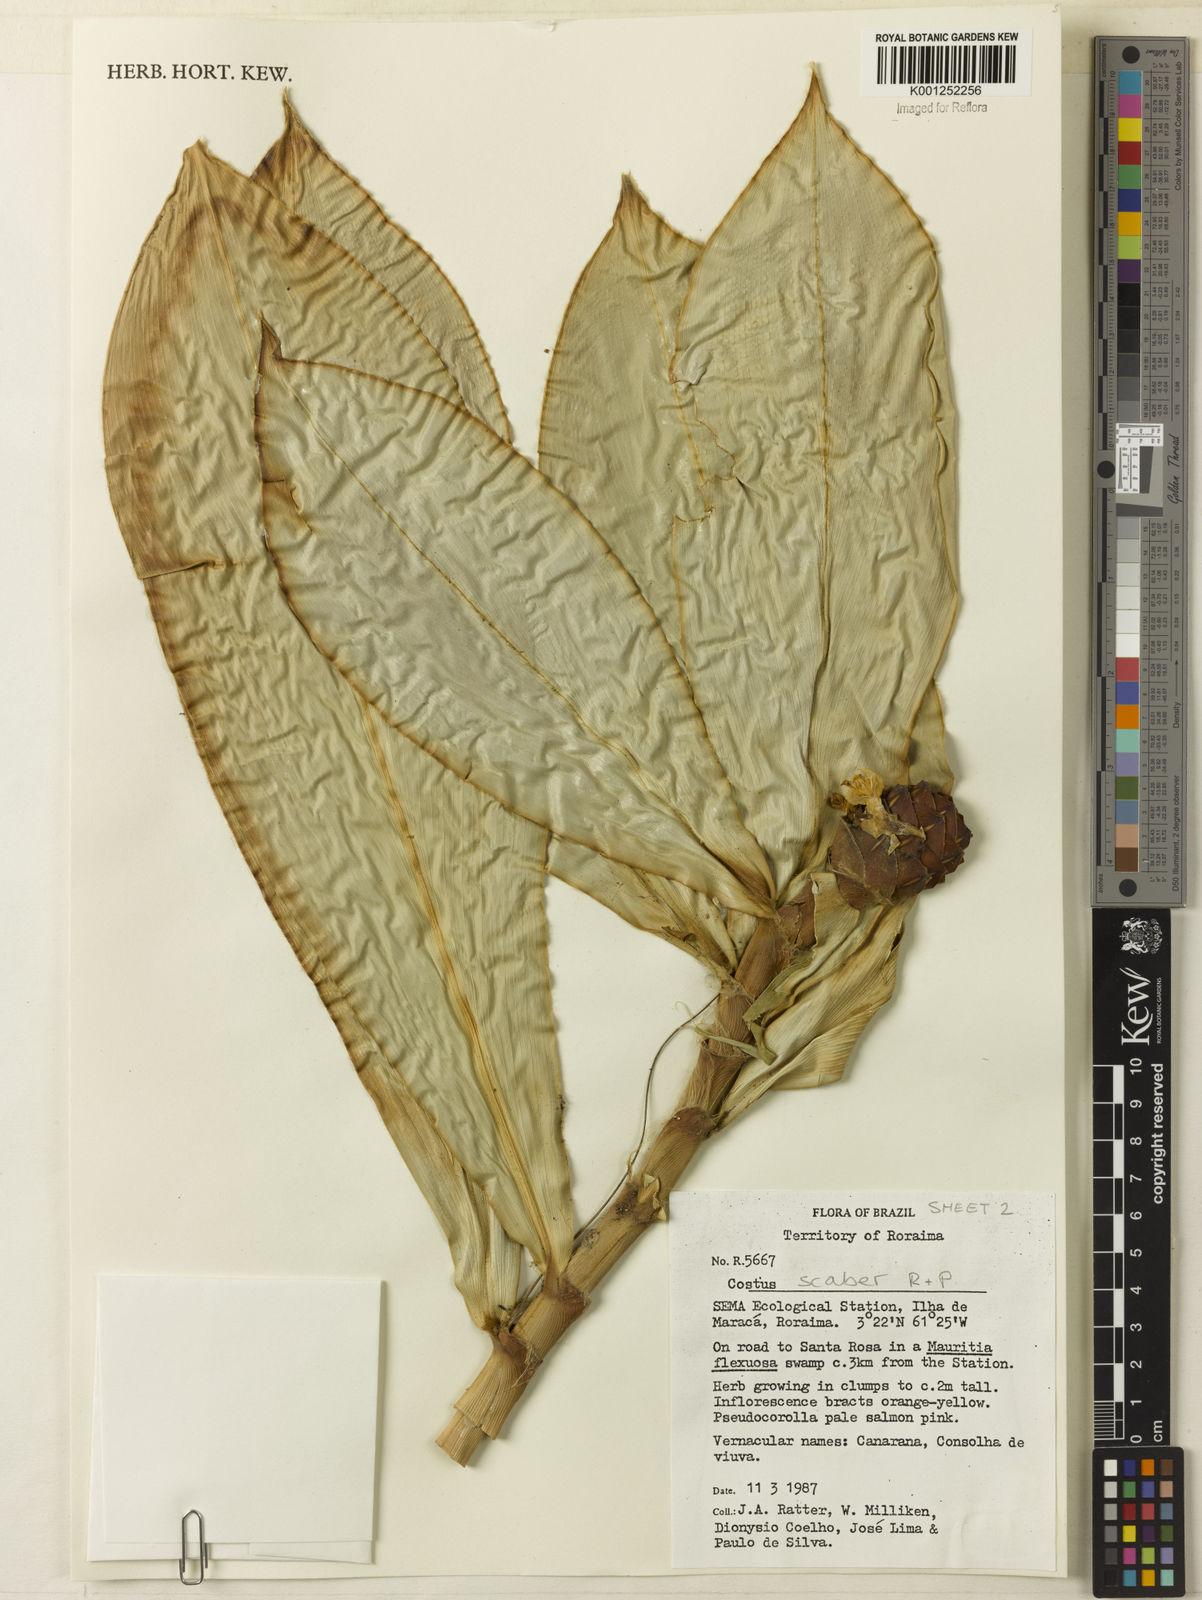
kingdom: Plantae
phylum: Tracheophyta
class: Liliopsida
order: Zingiberales
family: Costaceae
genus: Costus
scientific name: Costus scaber
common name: Spiral head ginger
